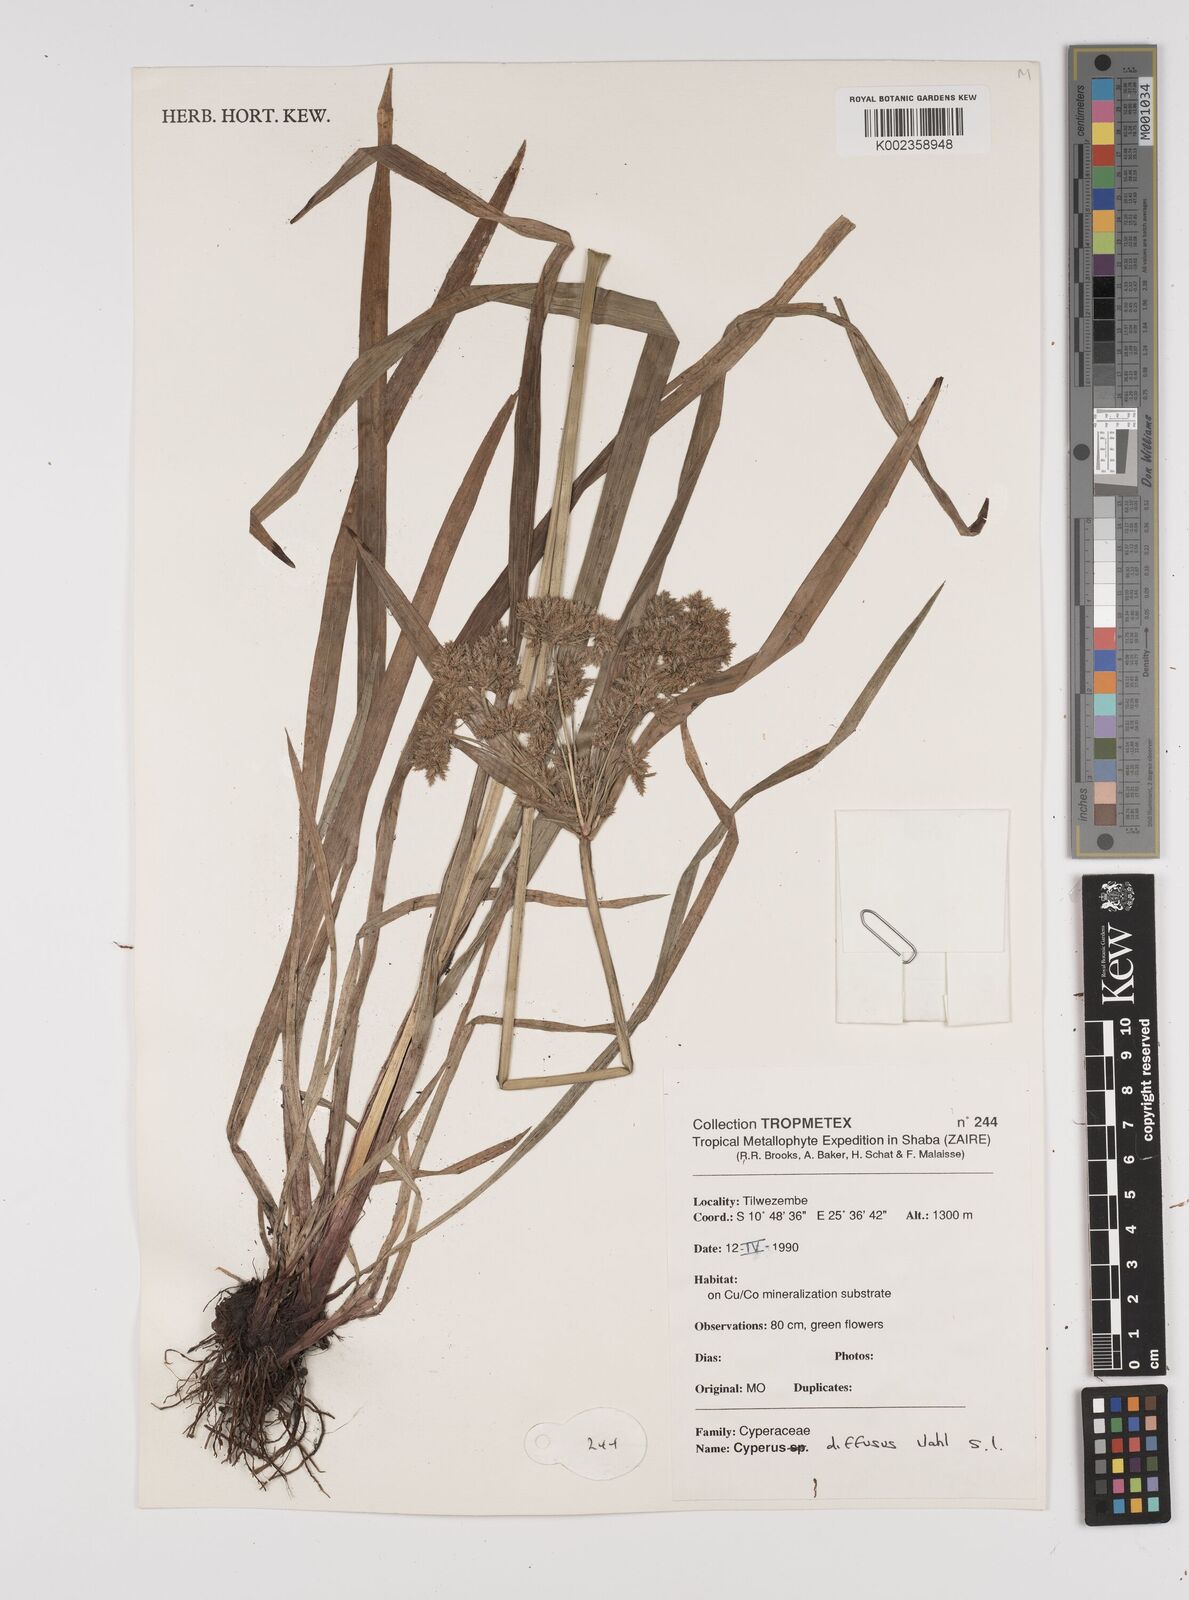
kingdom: Plantae
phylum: Tracheophyta
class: Liliopsida
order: Poales
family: Cyperaceae
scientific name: Cyperaceae
